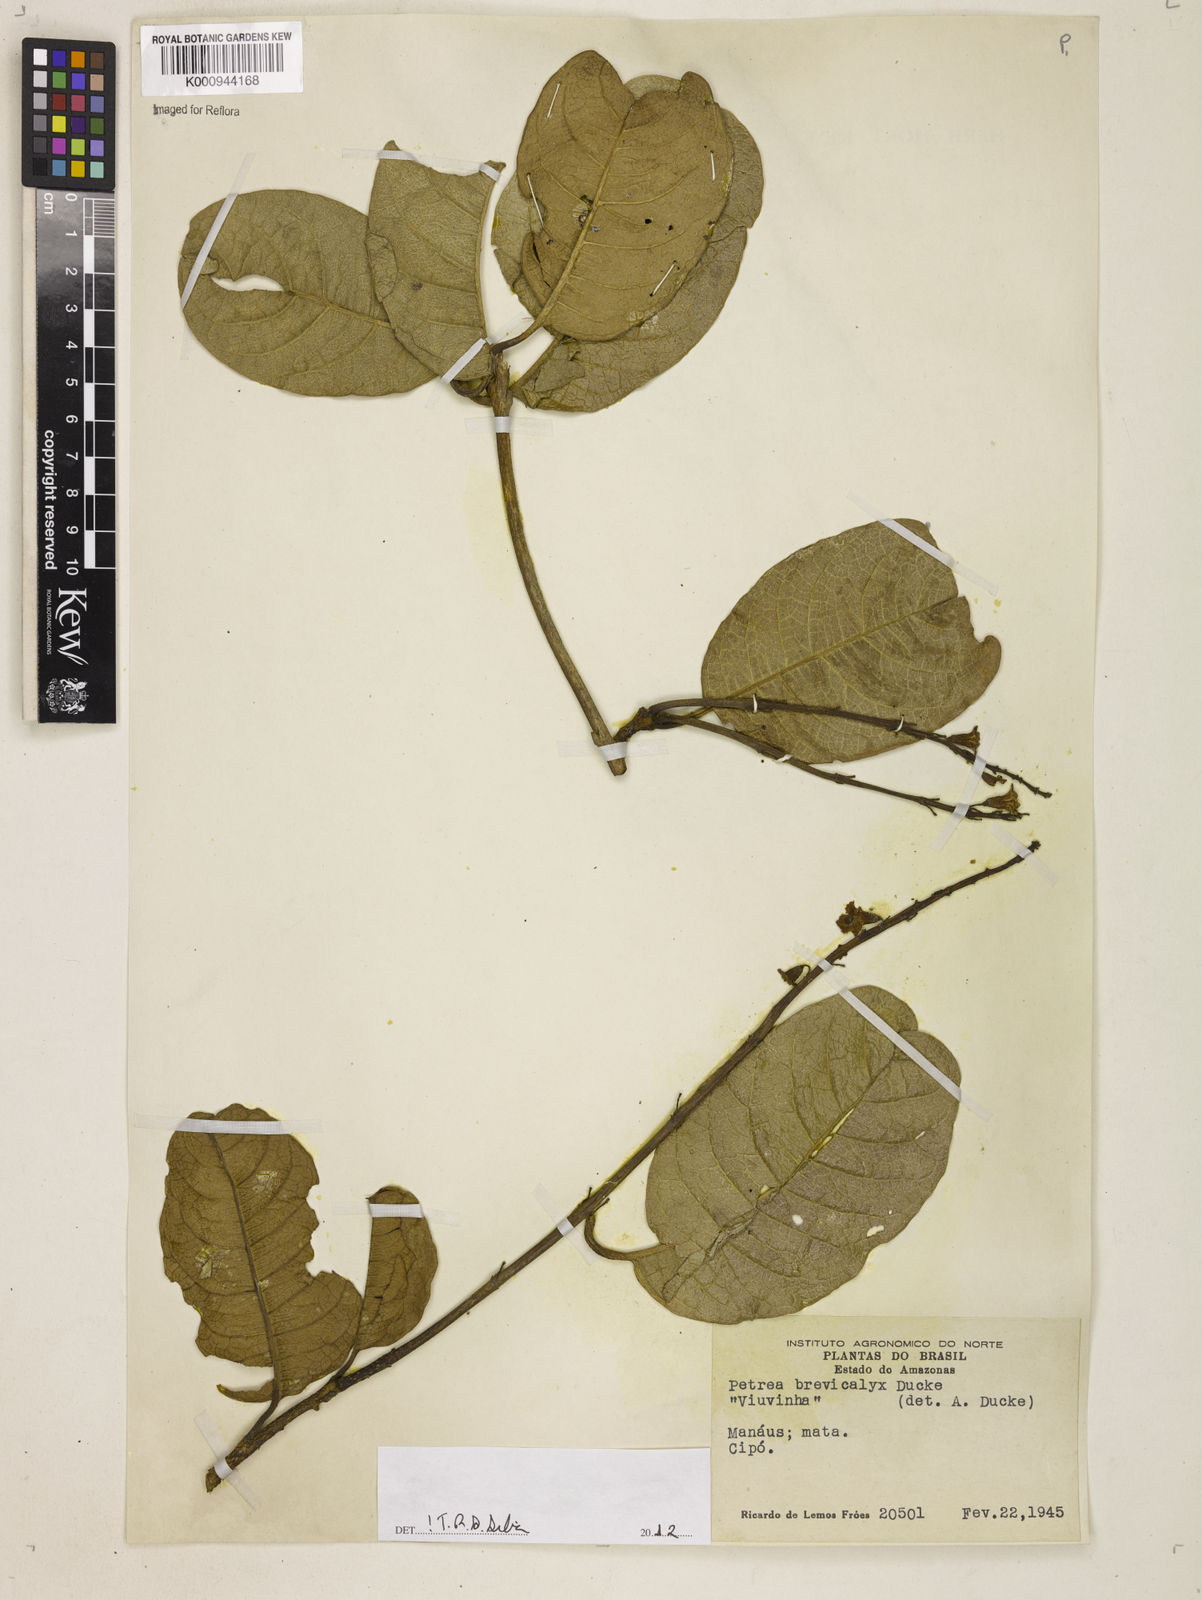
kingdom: Plantae
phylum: Tracheophyta
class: Magnoliopsida
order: Lamiales
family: Verbenaceae
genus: Petrea
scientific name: Petrea brevicalyx
